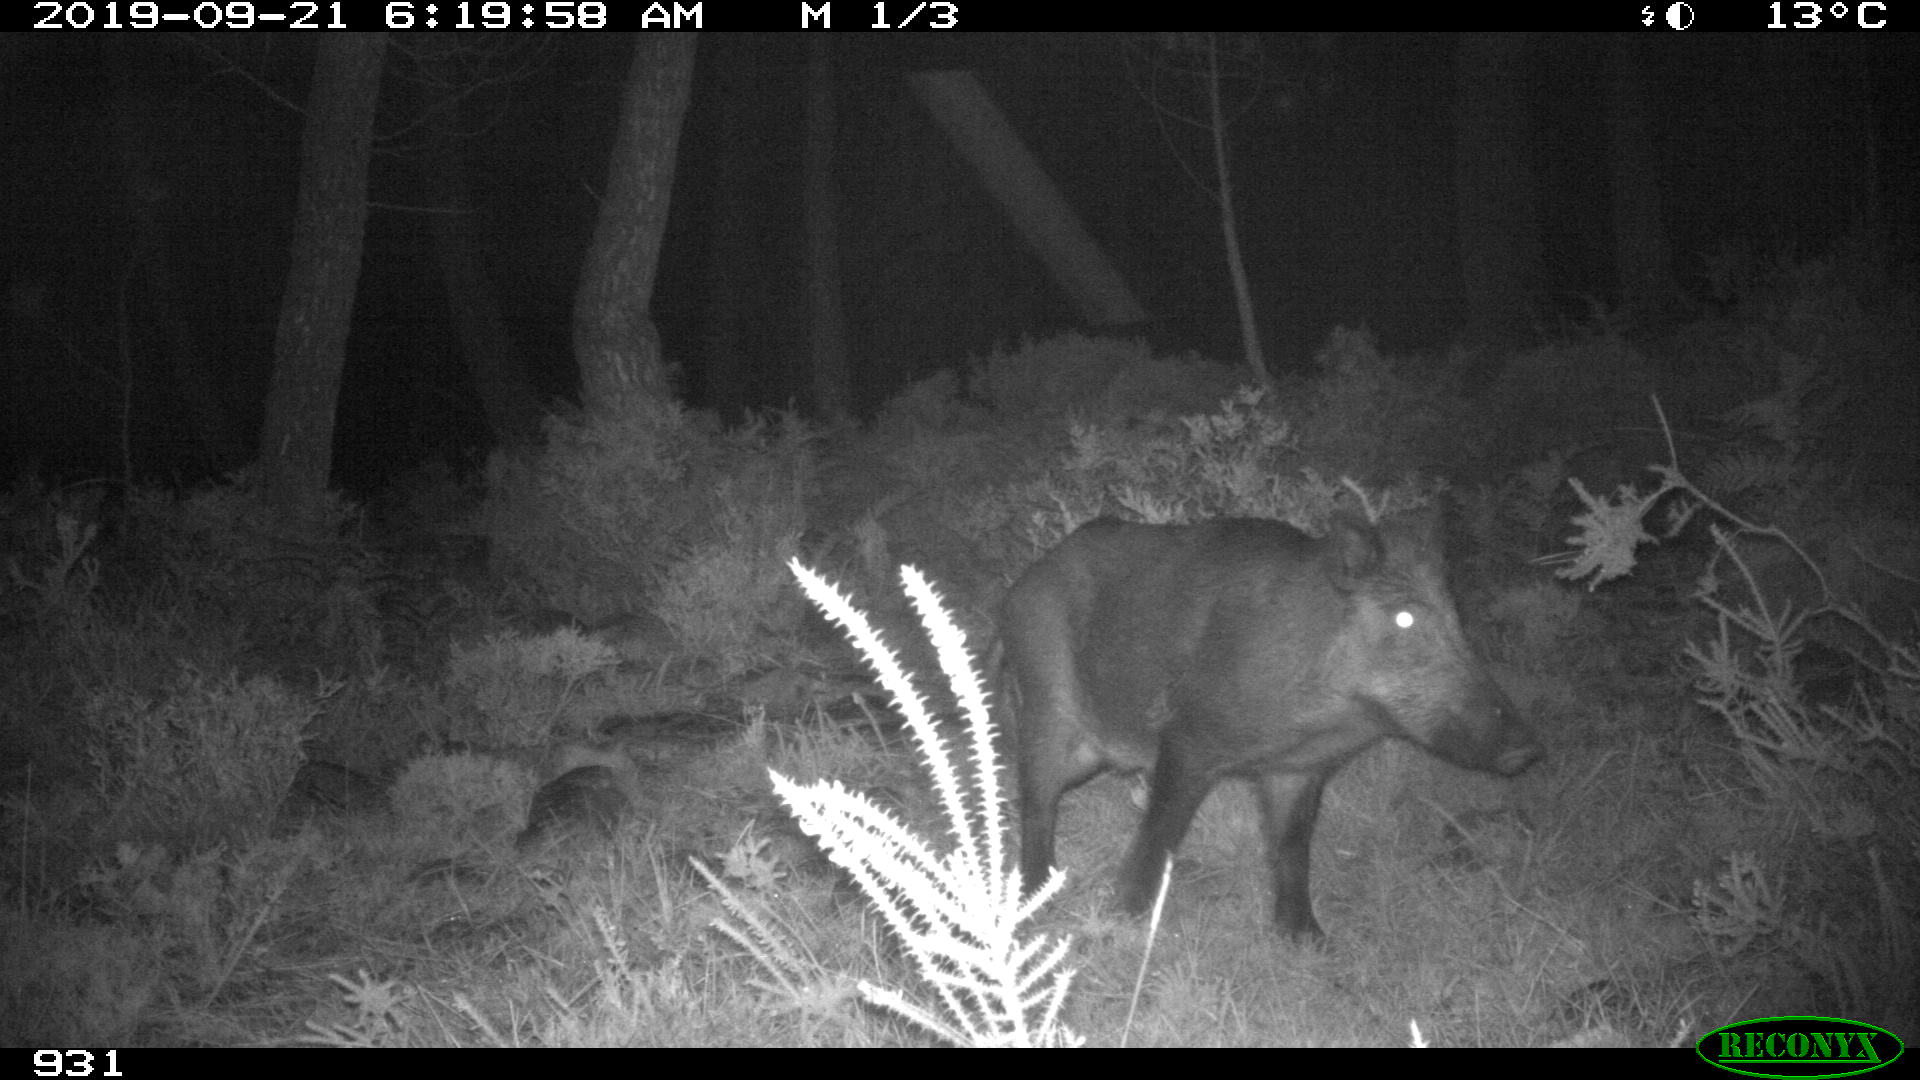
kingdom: Animalia
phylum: Chordata
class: Mammalia
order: Artiodactyla
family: Suidae
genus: Sus
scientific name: Sus scrofa
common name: Wild boar
